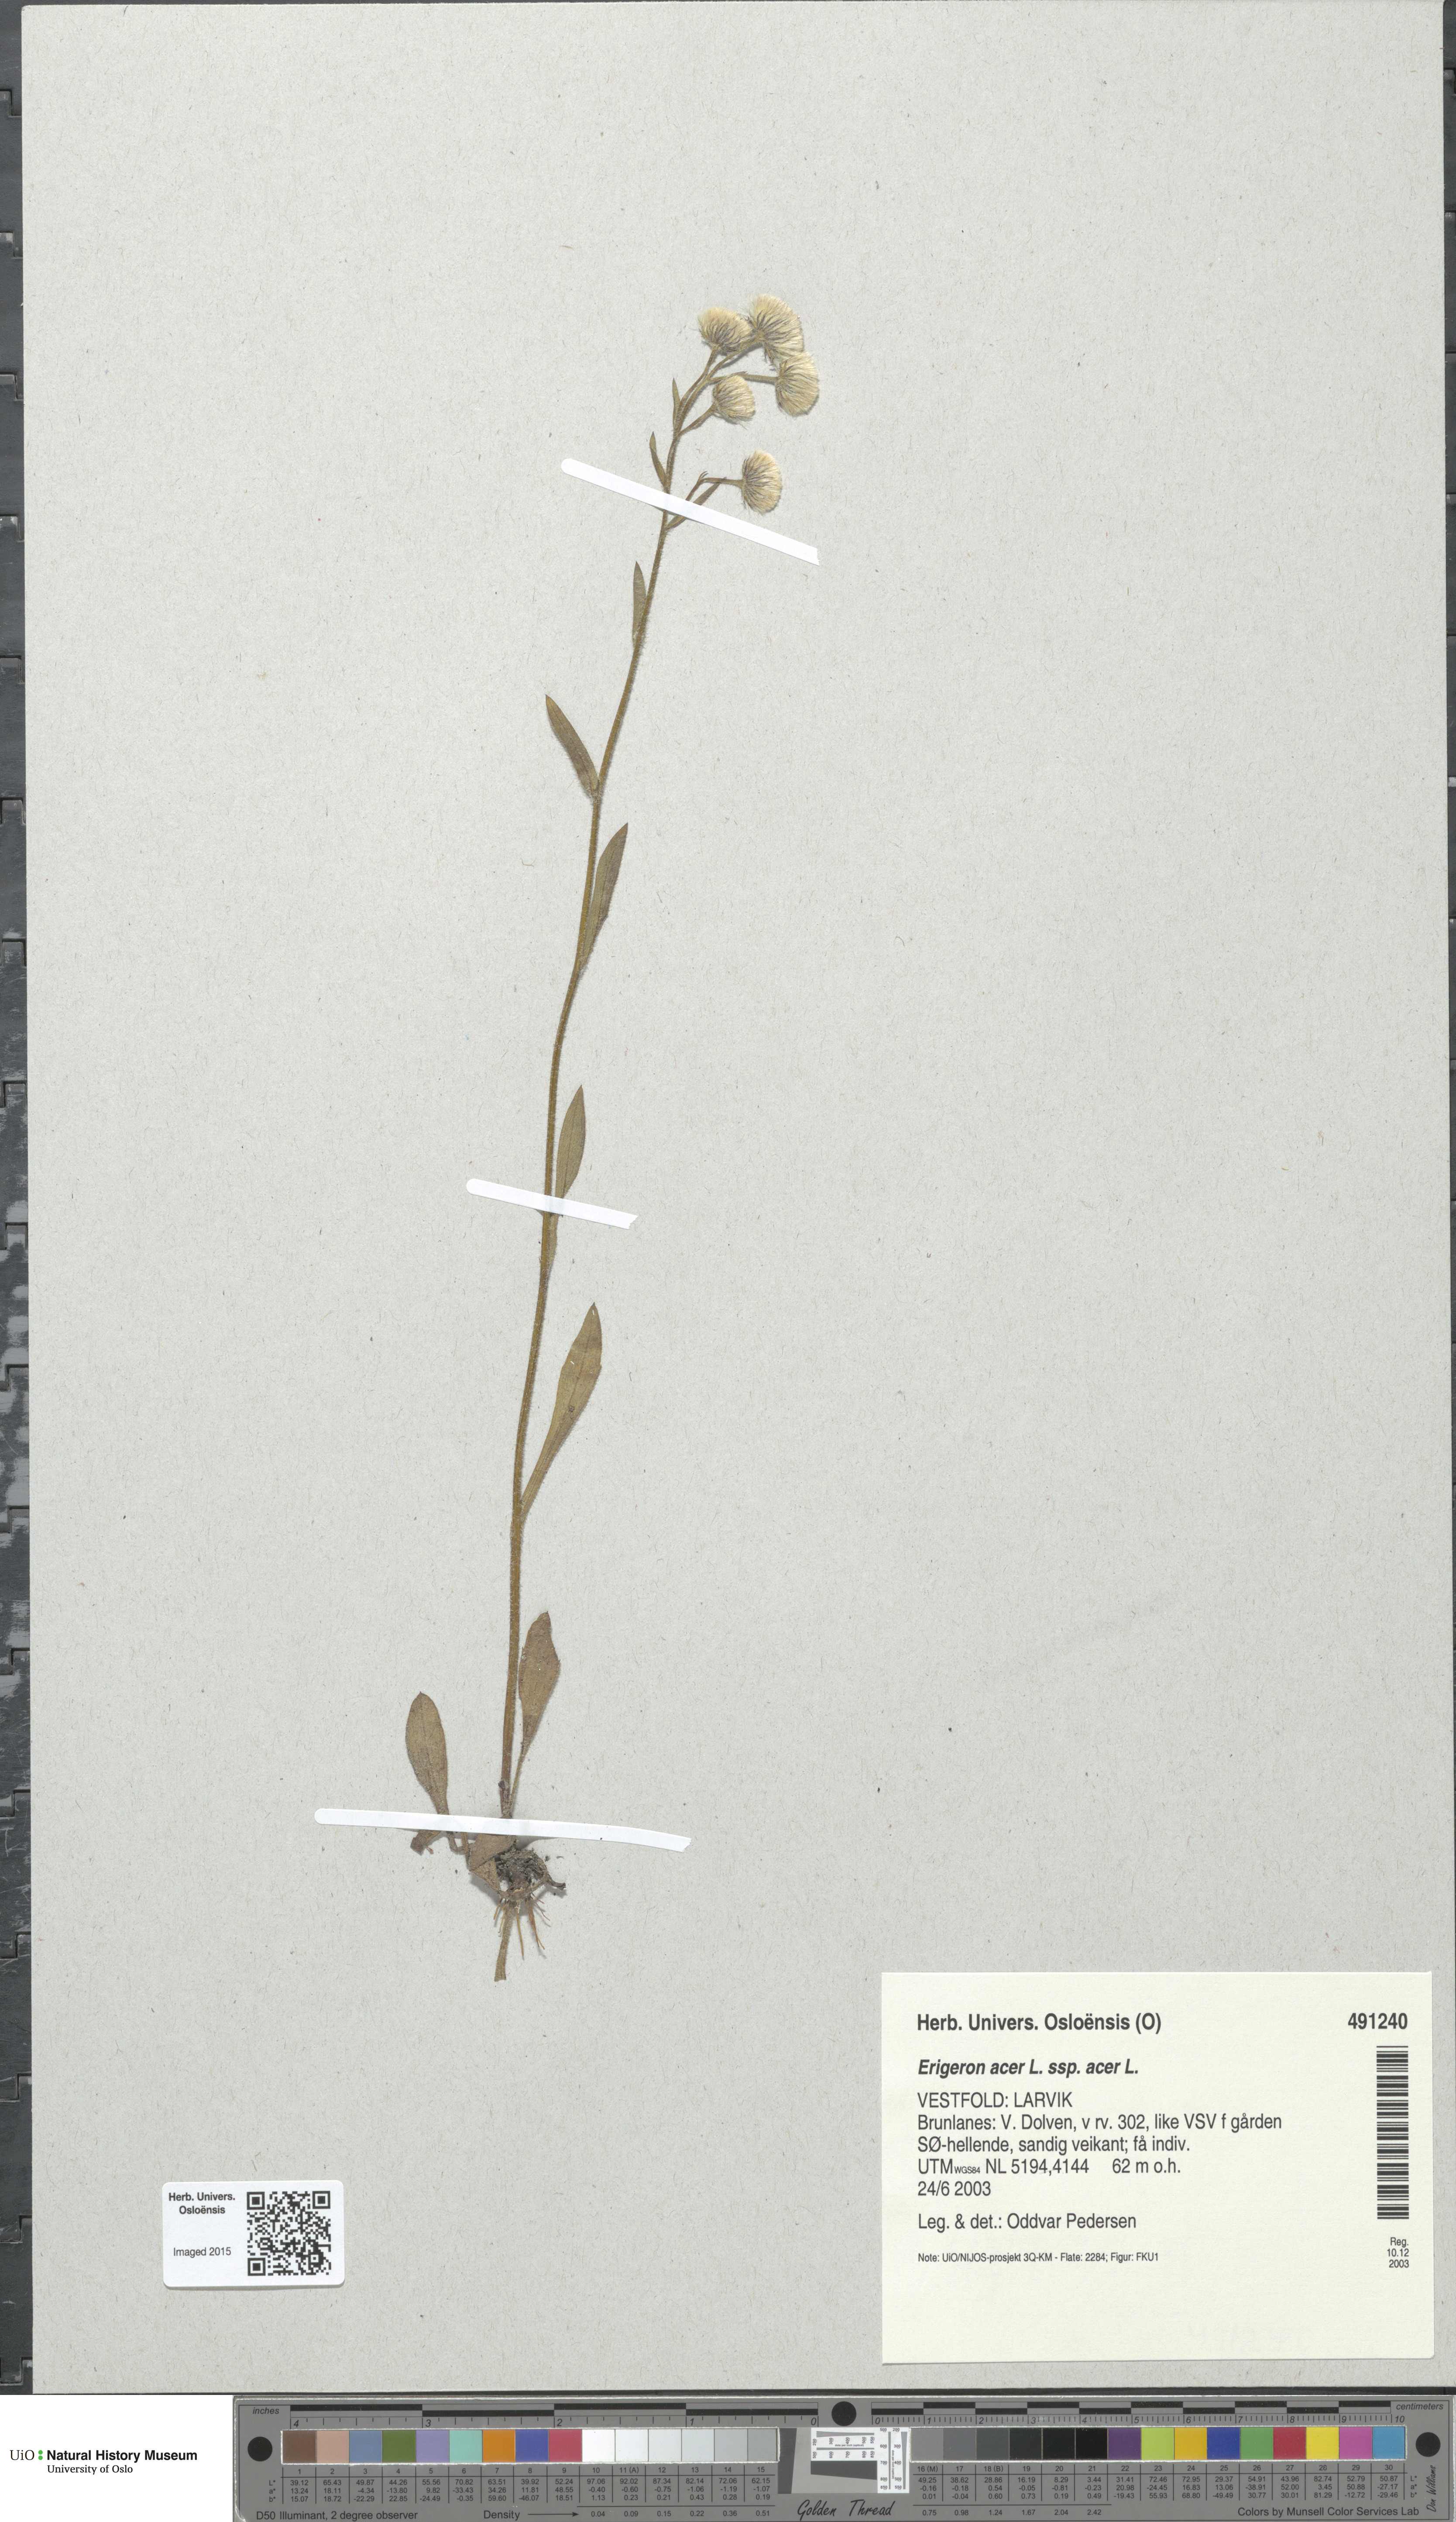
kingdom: Plantae
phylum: Tracheophyta
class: Magnoliopsida
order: Asterales
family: Asteraceae
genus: Erigeron
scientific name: Erigeron acris
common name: Blue fleabane
